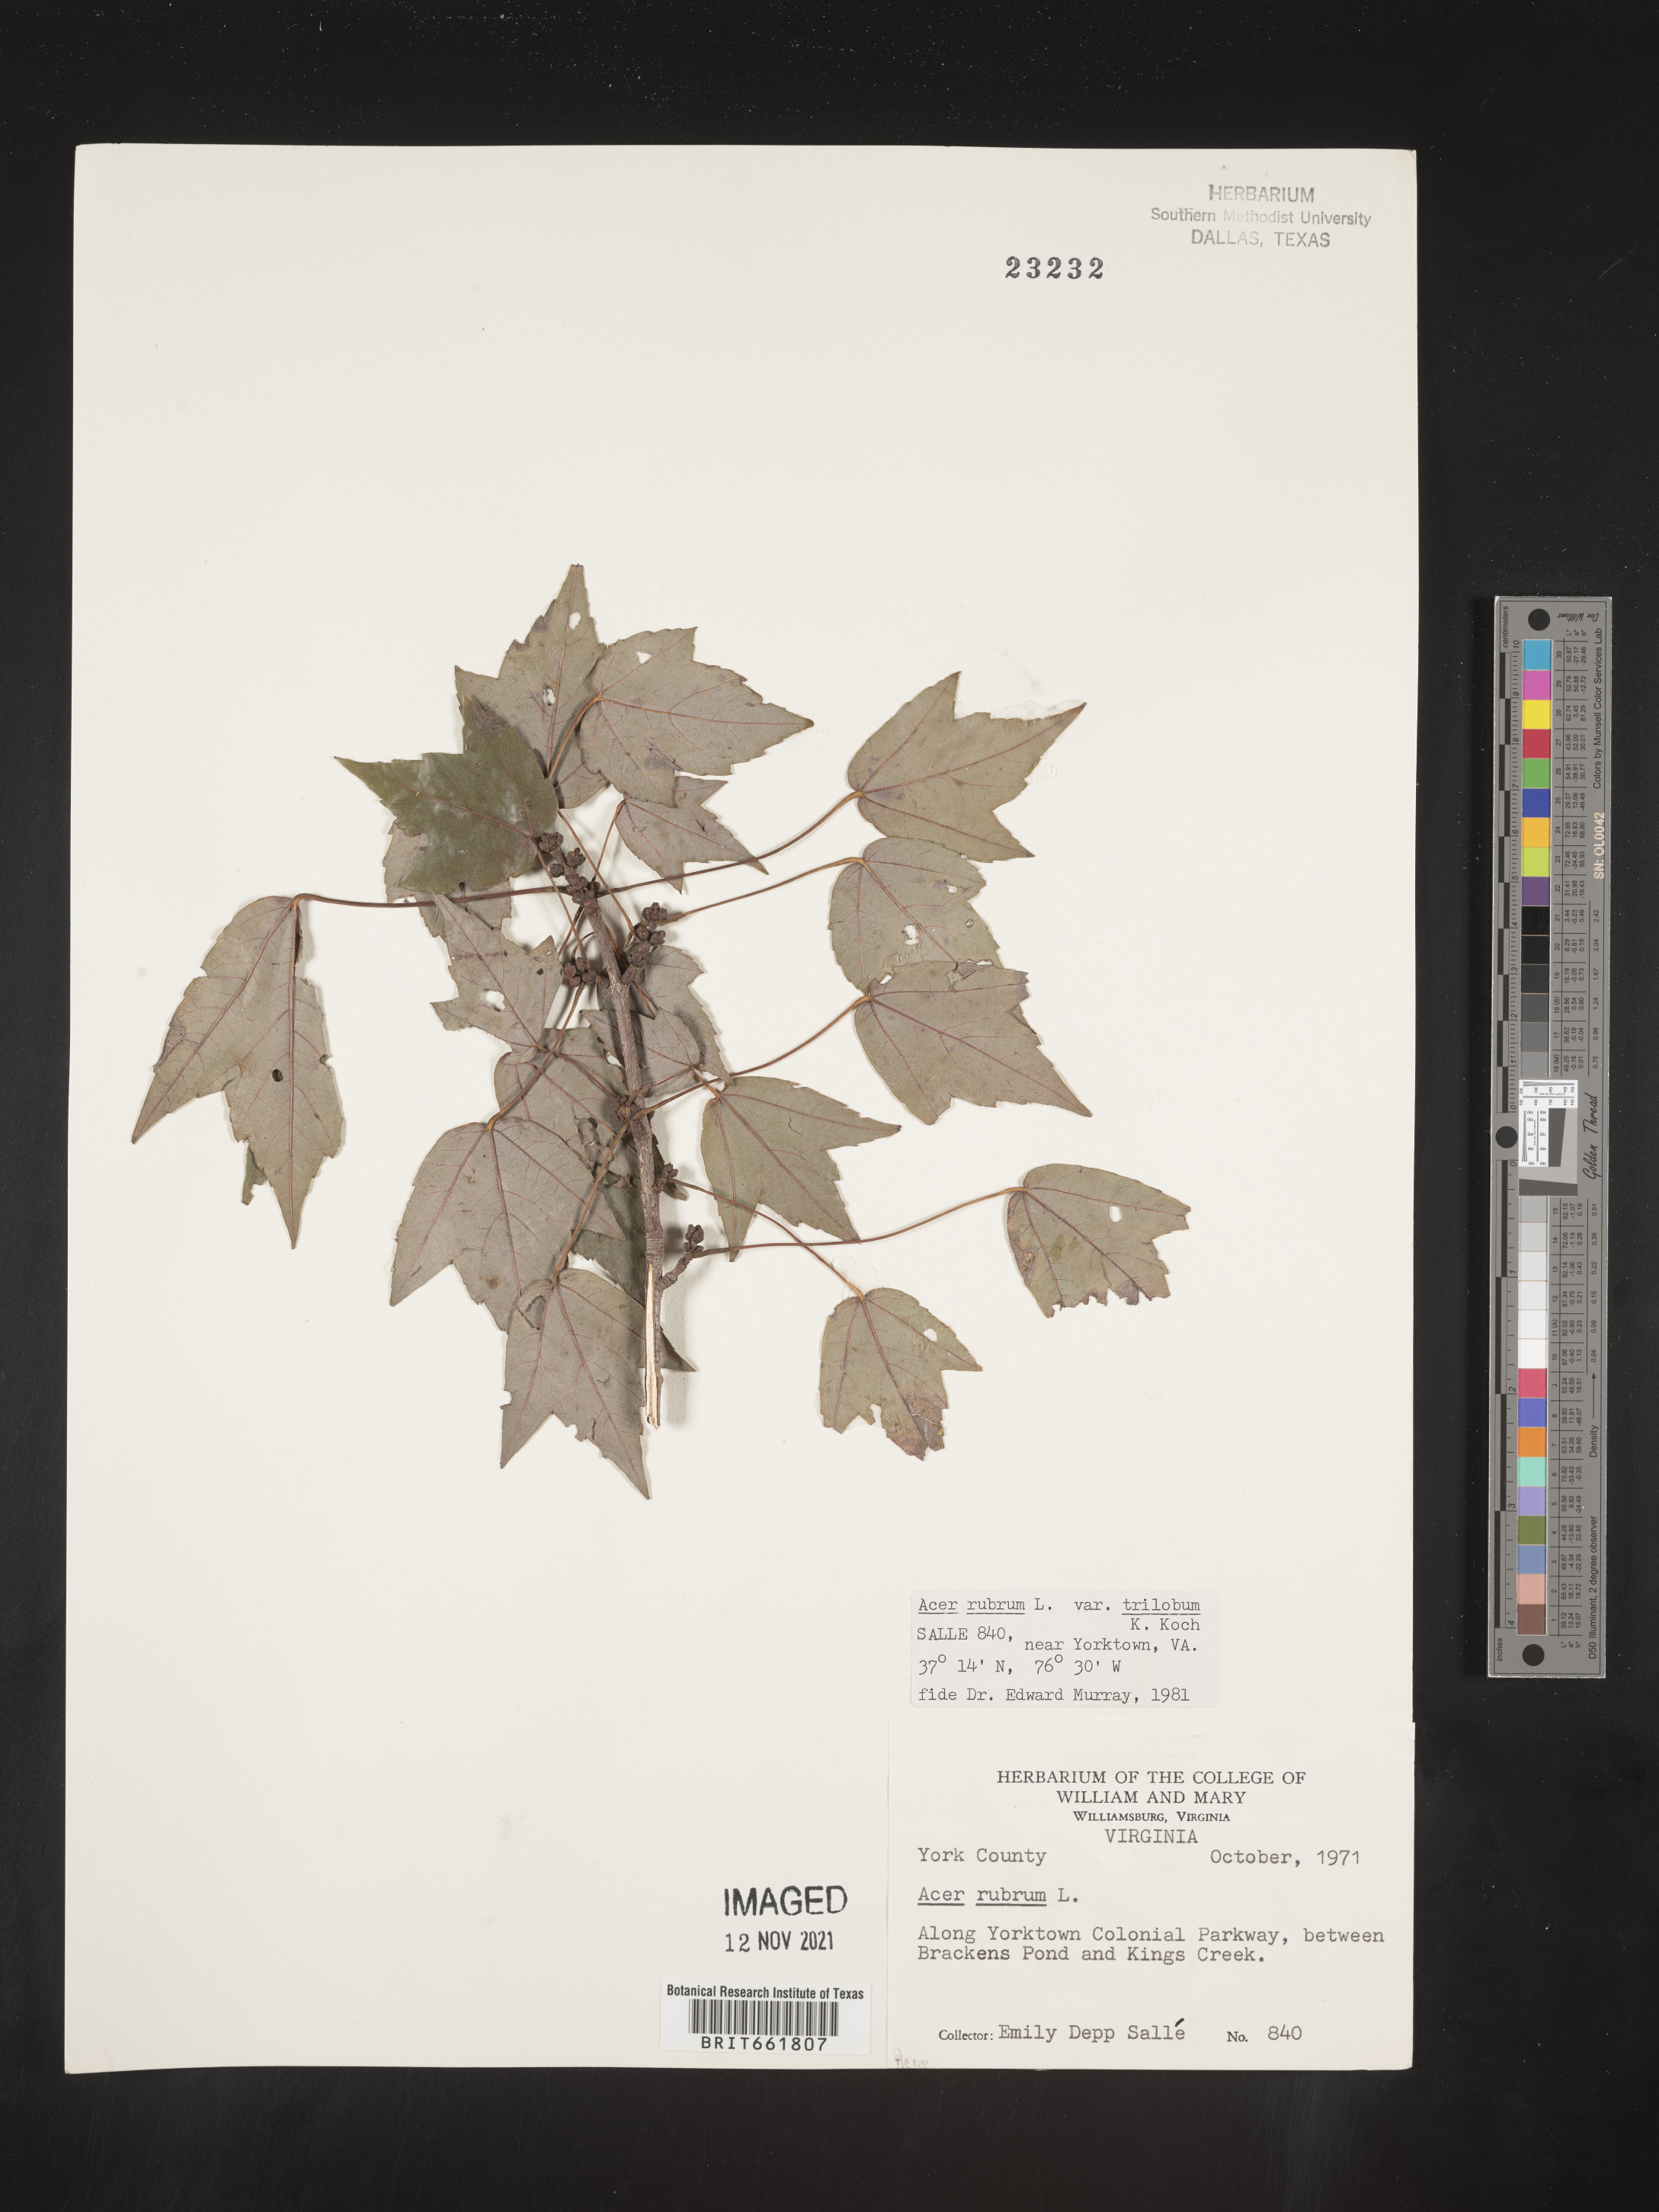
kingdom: Plantae
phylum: Tracheophyta
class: Magnoliopsida
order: Sapindales
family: Sapindaceae
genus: Acer
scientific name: Acer rubrum
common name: Red maple
